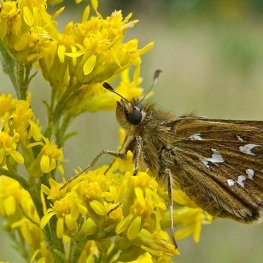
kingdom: Animalia
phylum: Arthropoda
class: Insecta
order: Lepidoptera
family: Hesperiidae
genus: Hesperia
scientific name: Hesperia comma
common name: Common Branded Skipper
